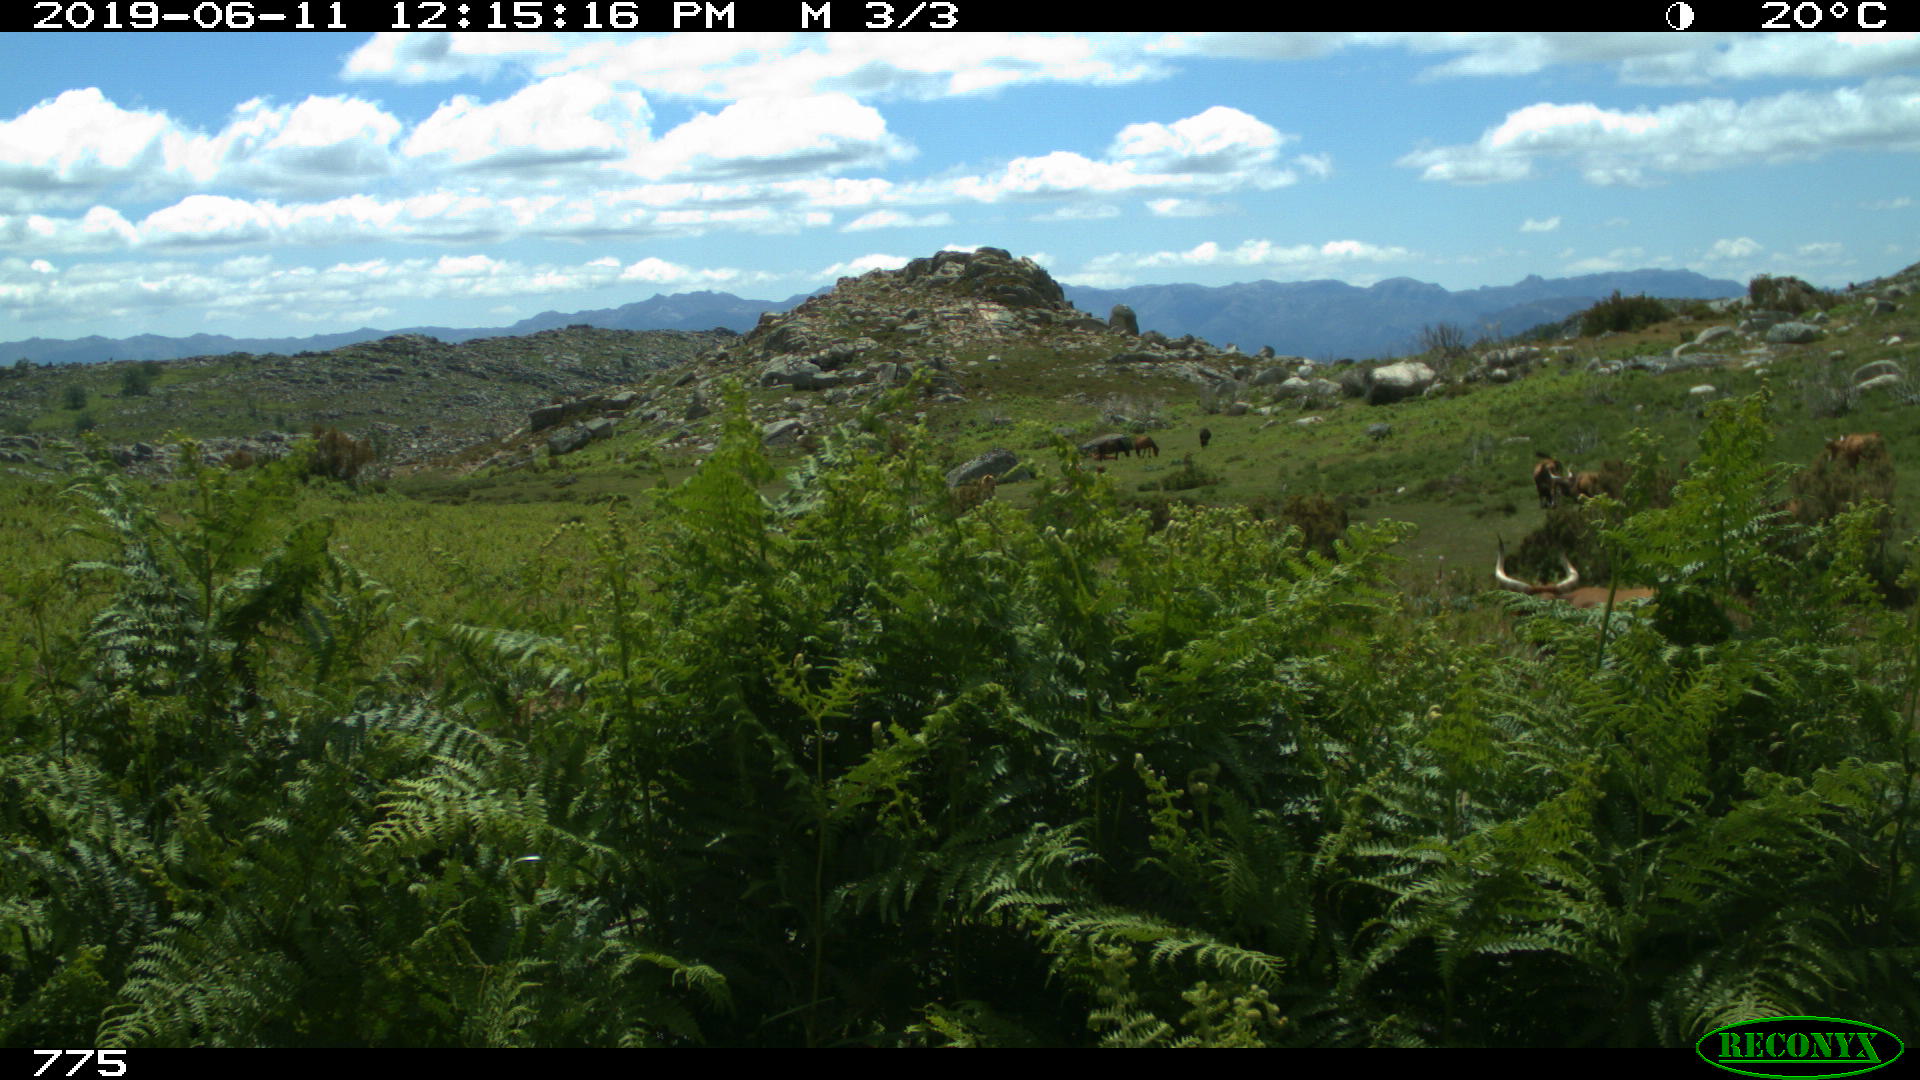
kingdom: Animalia
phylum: Chordata
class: Mammalia
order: Artiodactyla
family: Bovidae
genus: Bos
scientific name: Bos taurus
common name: Domesticated cattle
